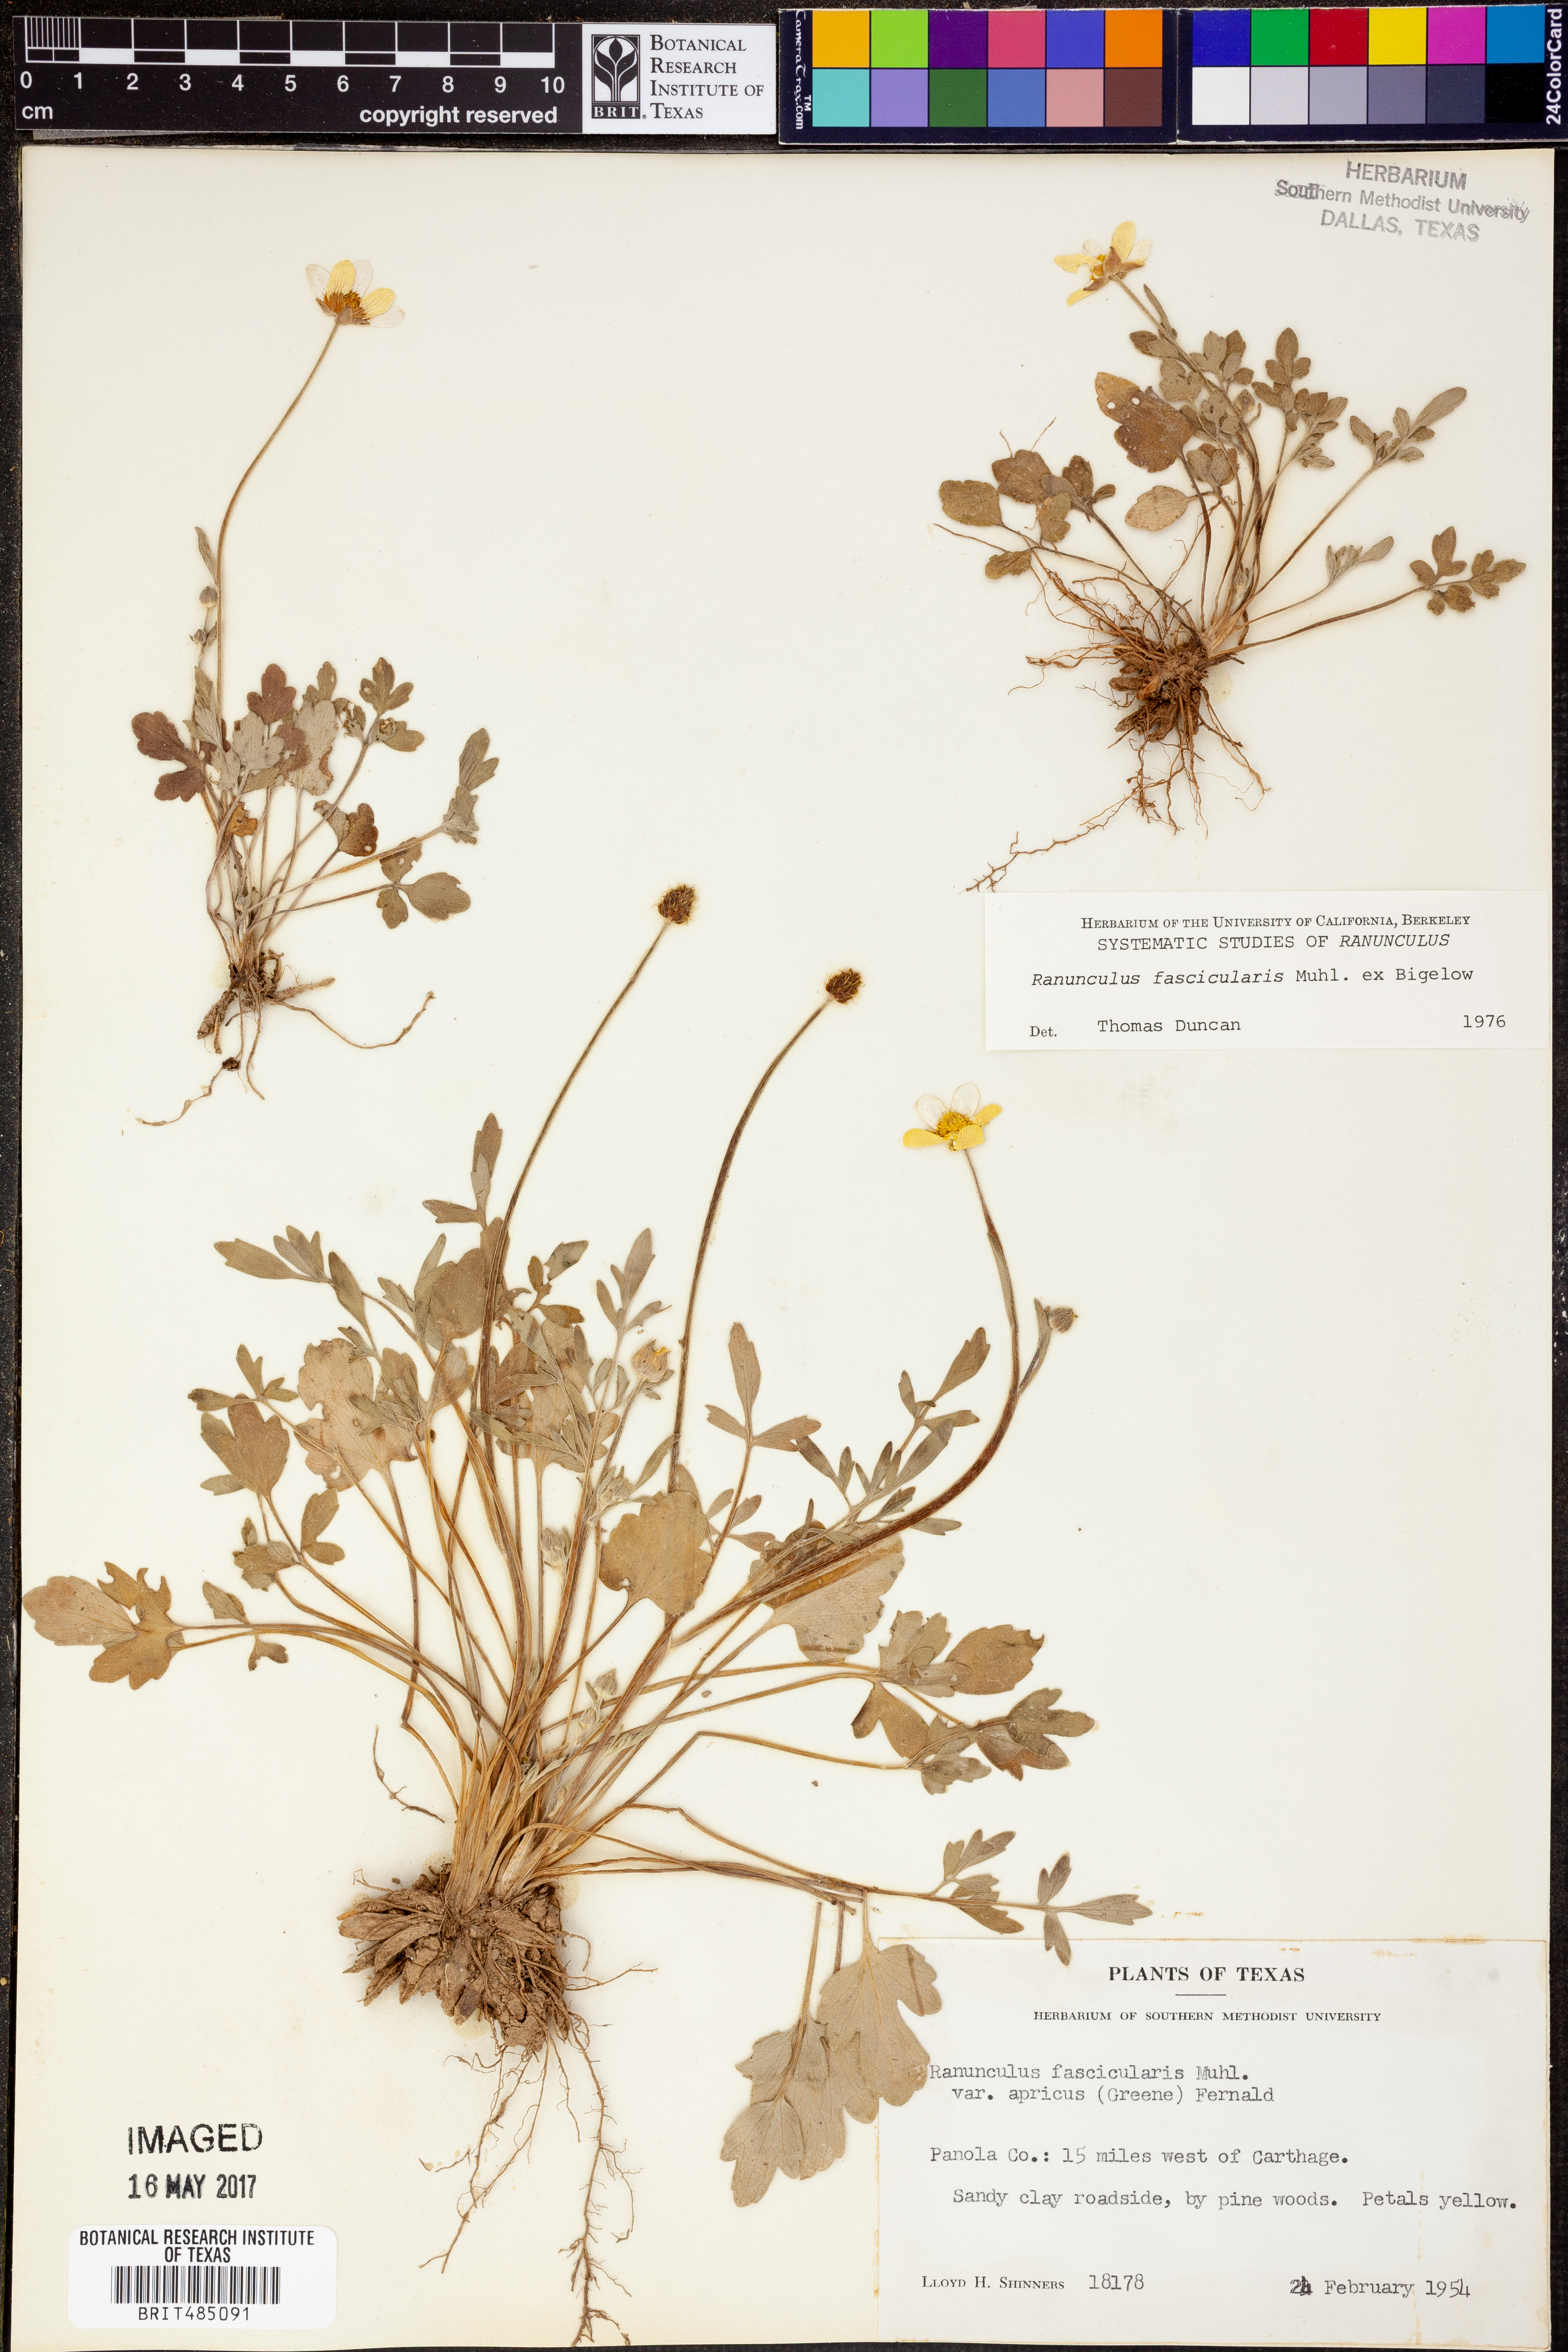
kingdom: Plantae
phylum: Tracheophyta
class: Magnoliopsida
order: Ranunculales
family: Ranunculaceae
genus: Ranunculus
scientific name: Ranunculus fascicularis
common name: Early buttercup
